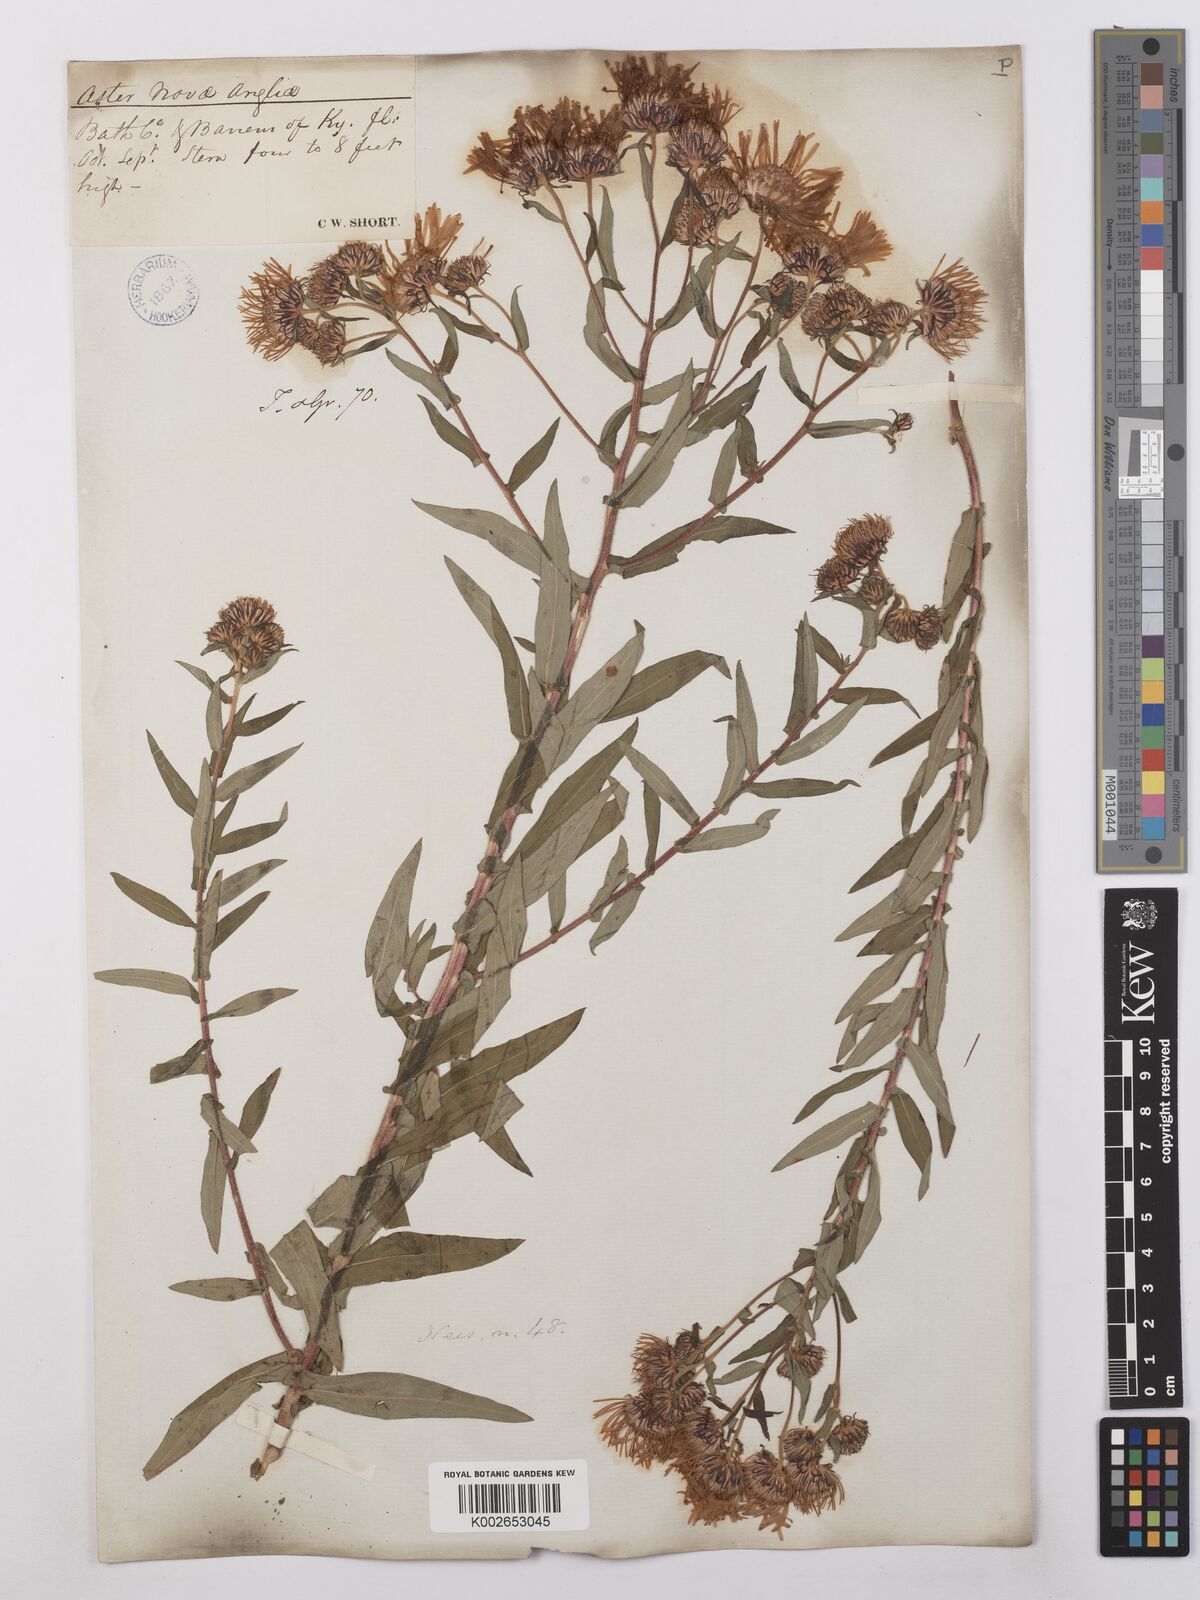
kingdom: Plantae
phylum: Tracheophyta
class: Magnoliopsida
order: Asterales
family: Asteraceae
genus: Symphyotrichum
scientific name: Symphyotrichum novae-angliae
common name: Michaelmas daisy
